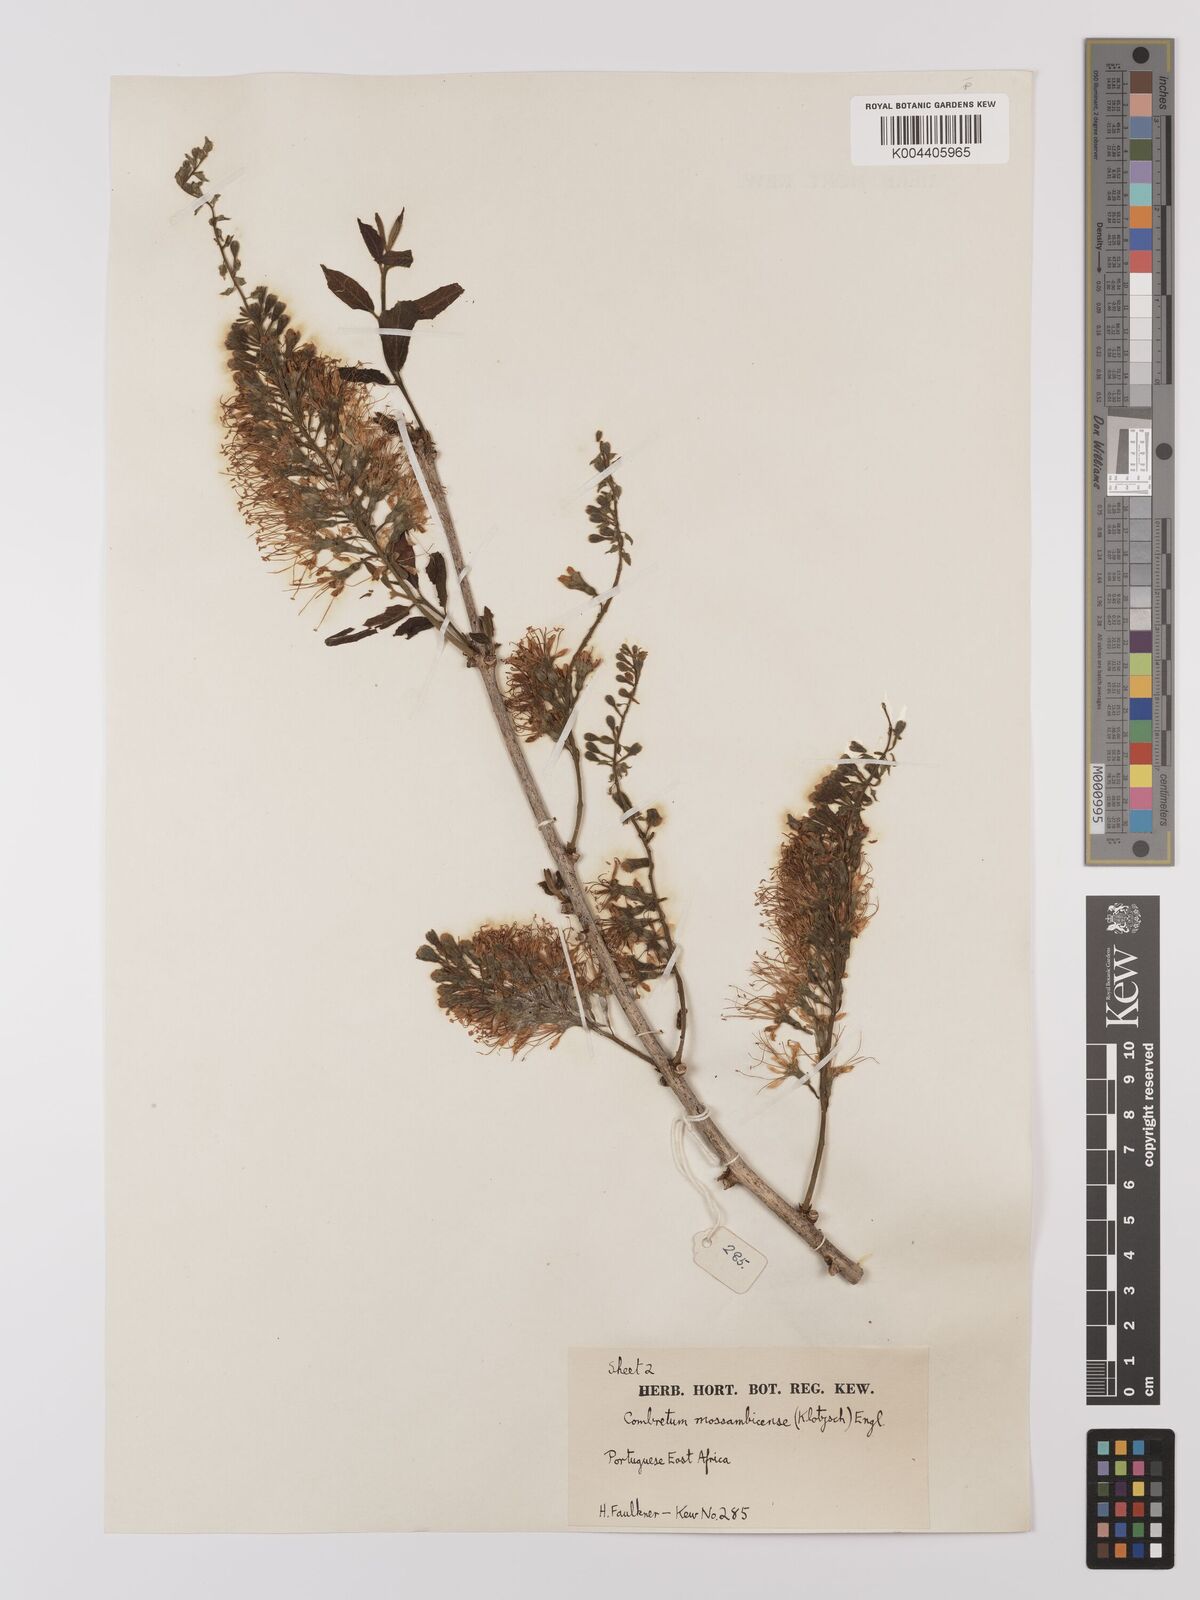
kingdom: Plantae
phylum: Tracheophyta
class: Magnoliopsida
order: Myrtales
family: Combretaceae
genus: Combretum
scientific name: Combretum mossambicense
